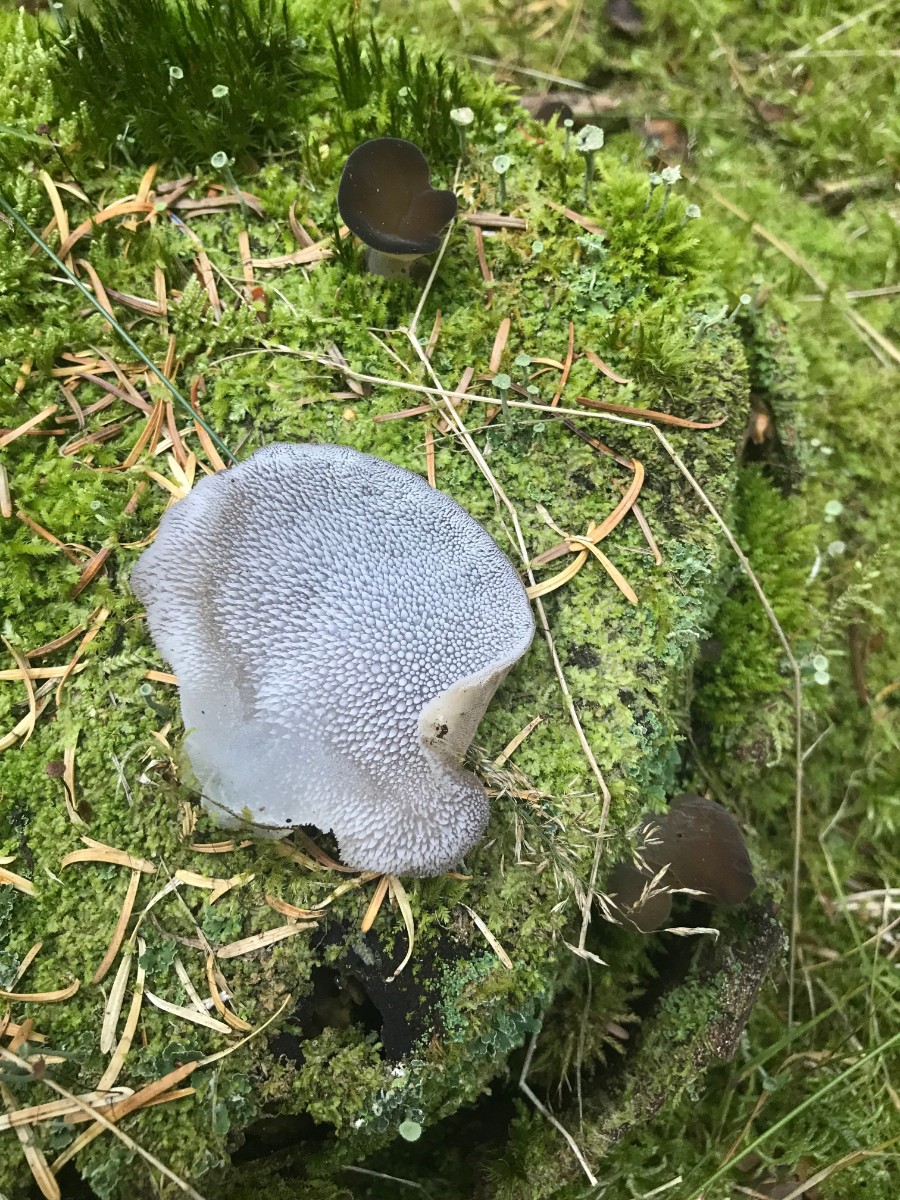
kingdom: Fungi
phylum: Basidiomycota
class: Agaricomycetes
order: Auriculariales
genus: Pseudohydnum
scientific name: Pseudohydnum gelatinosum
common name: bævretand
